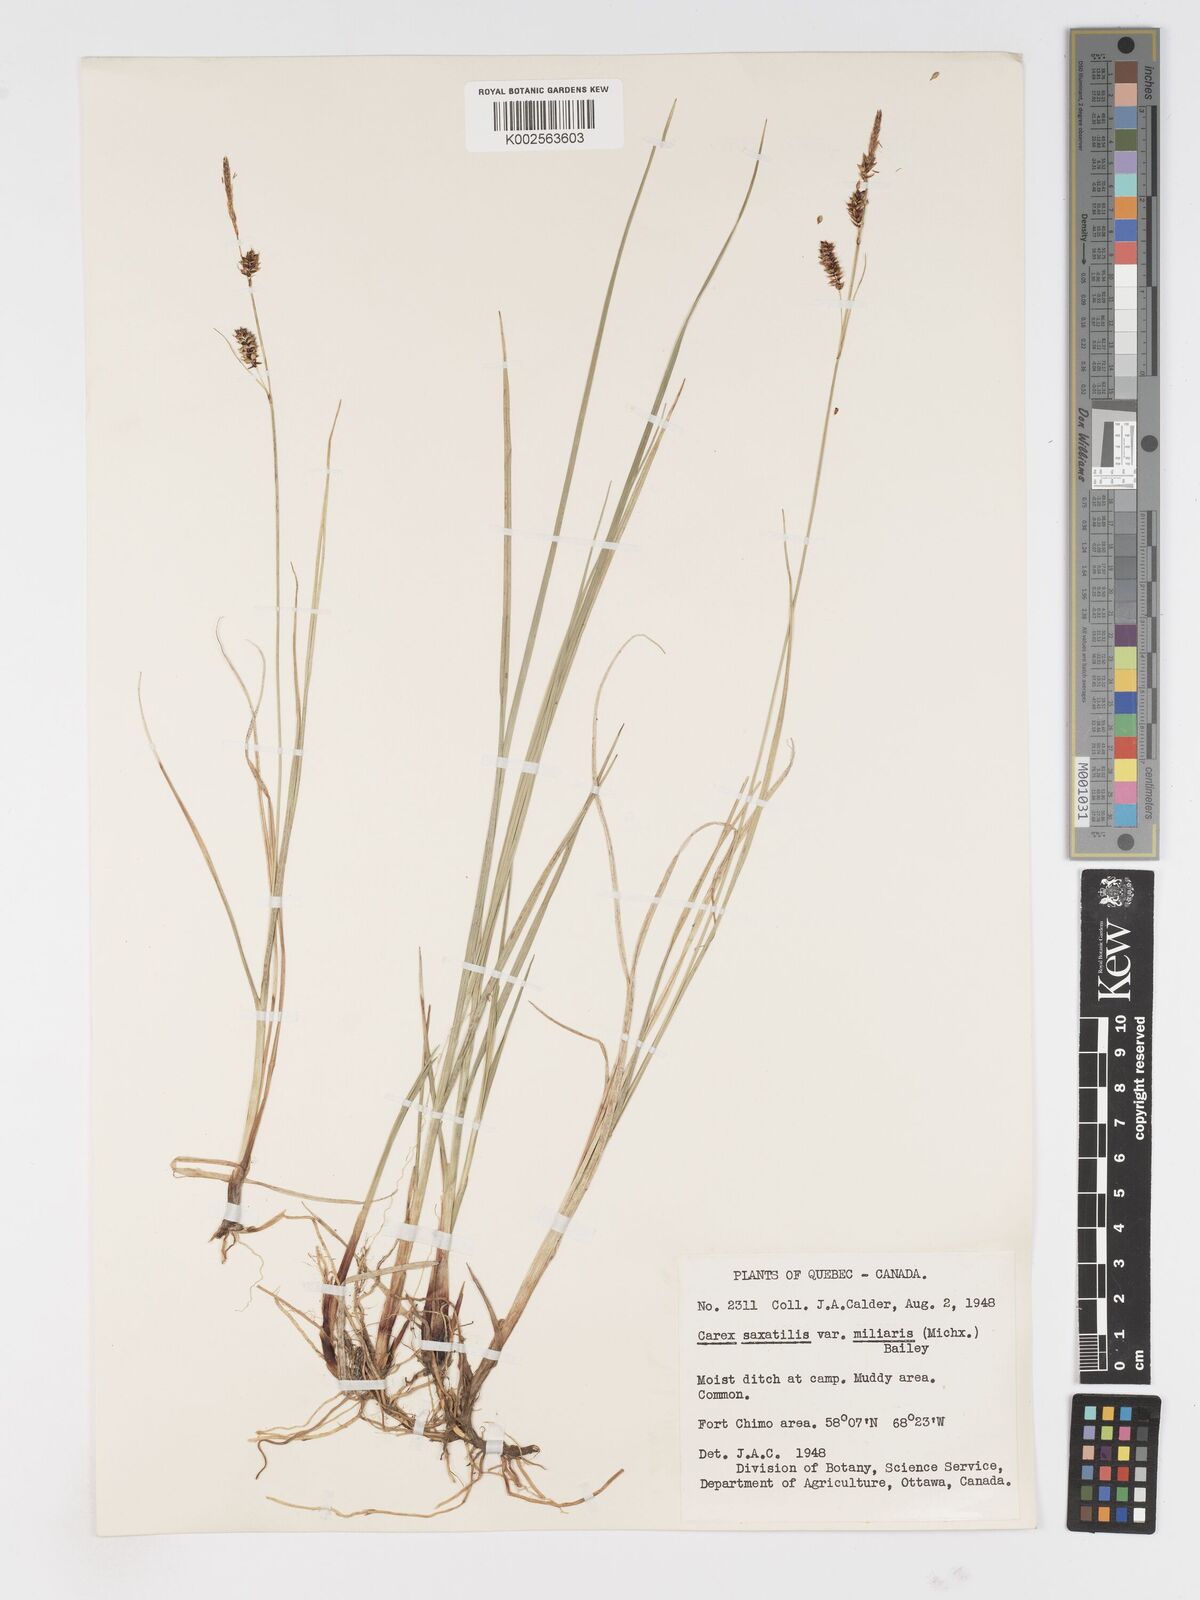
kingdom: Plantae
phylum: Tracheophyta
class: Liliopsida
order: Poales
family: Cyperaceae
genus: Carex
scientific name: Carex miliaris
